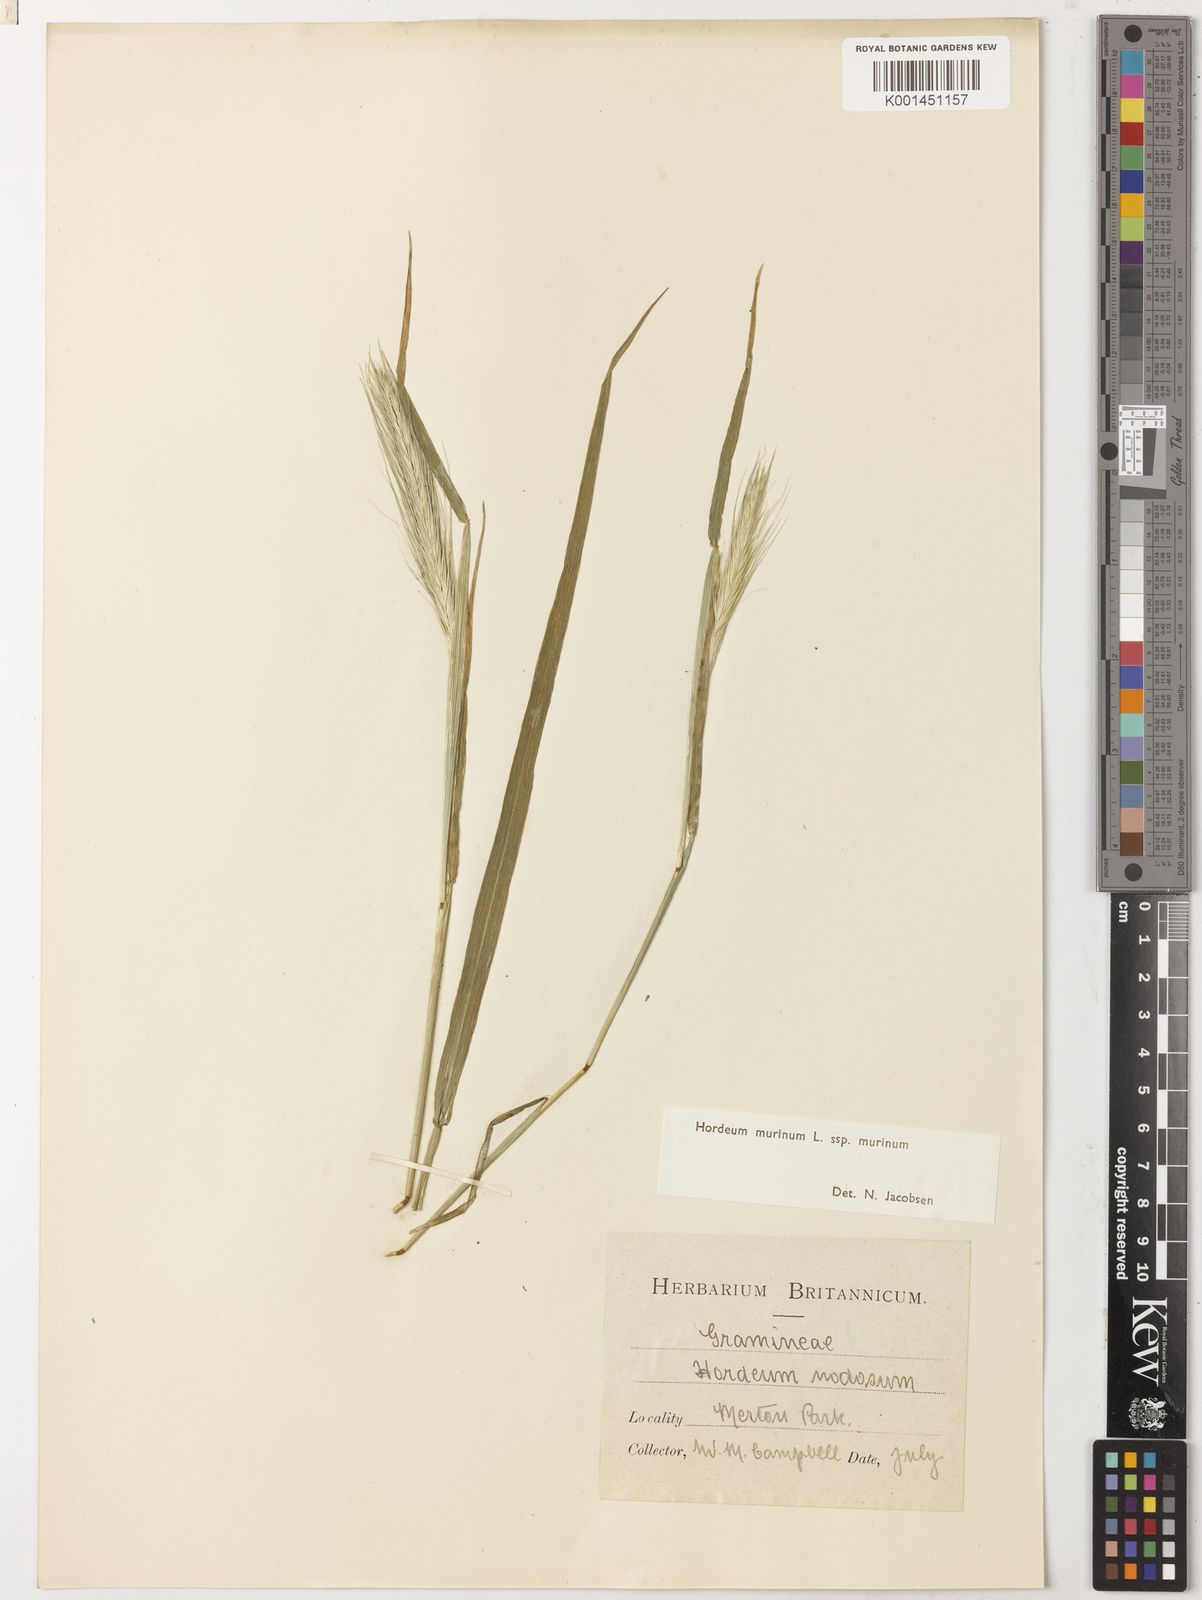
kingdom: Plantae
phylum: Tracheophyta
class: Liliopsida
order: Poales
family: Poaceae
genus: Hordeum
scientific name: Hordeum murinum
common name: Wall barley
